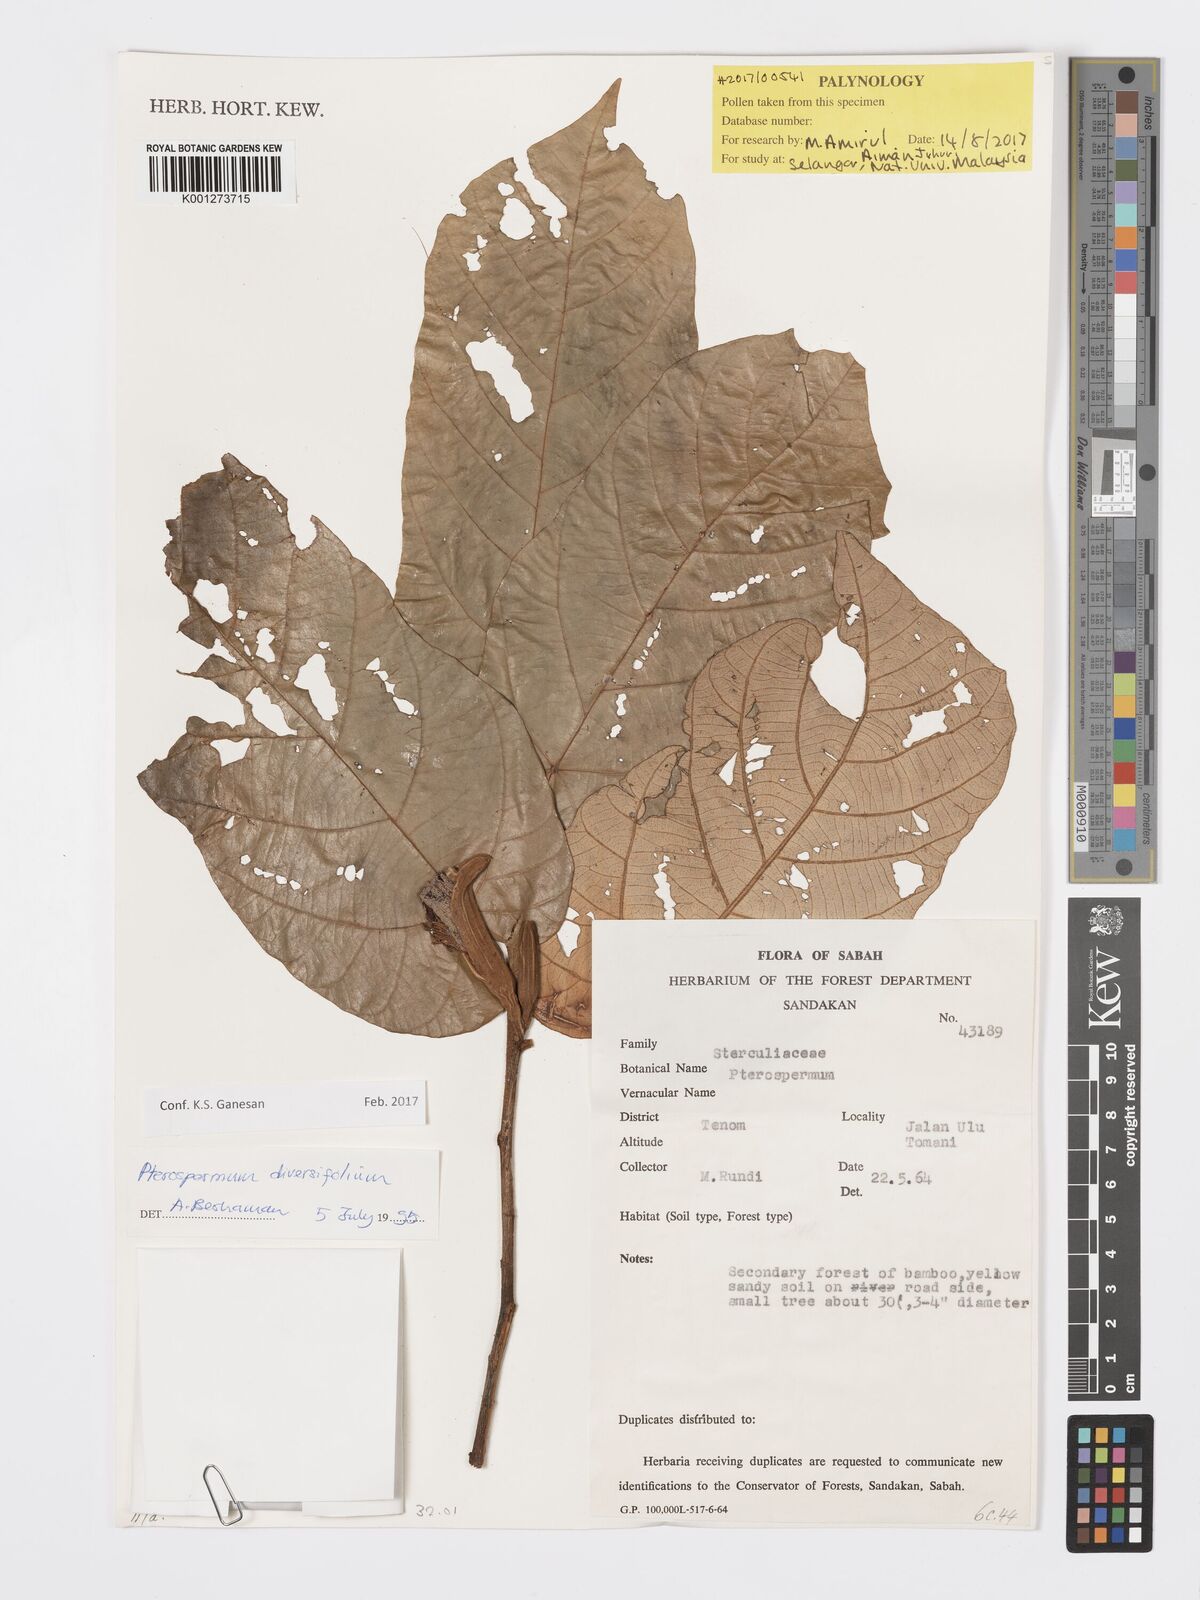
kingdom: Plantae
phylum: Tracheophyta
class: Magnoliopsida
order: Malvales
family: Malvaceae
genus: Pterospermum
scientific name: Pterospermum diversifolium
